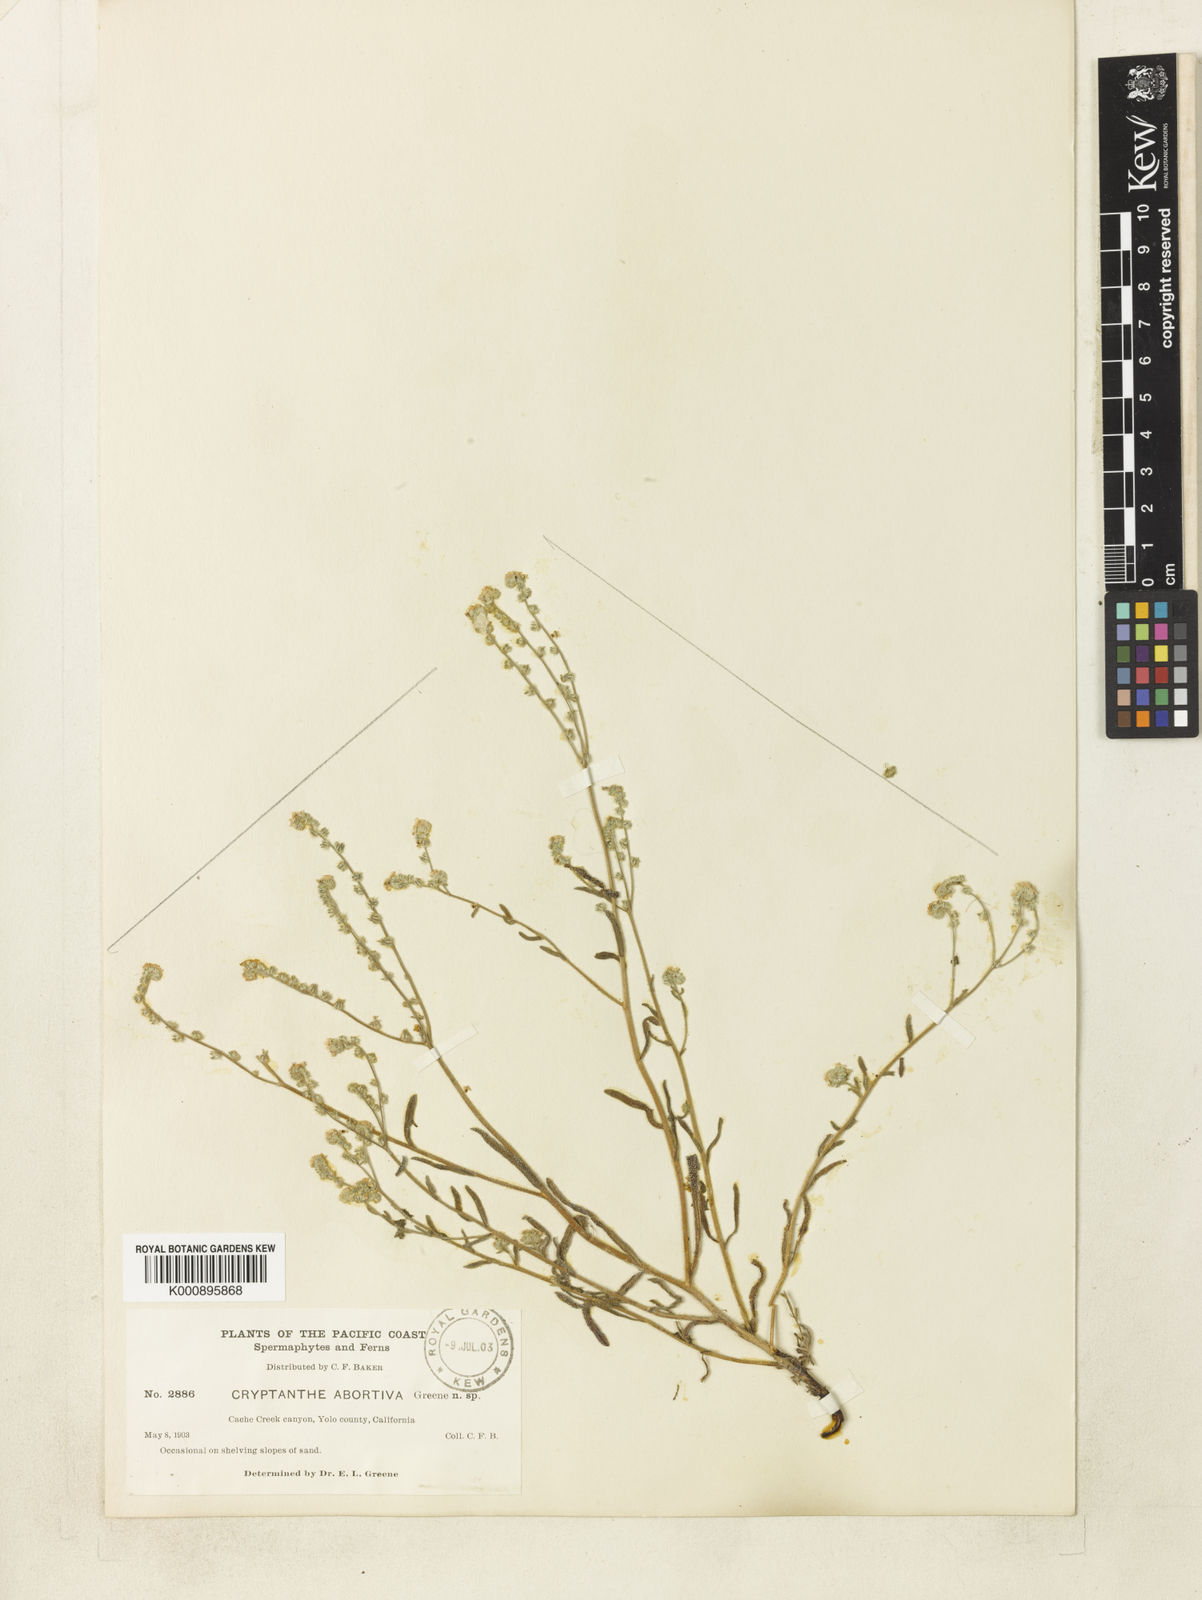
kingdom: Plantae
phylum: Tracheophyta
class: Magnoliopsida
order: Boraginales
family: Boraginaceae
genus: Oreocarya
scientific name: Oreocarya suffruticosa
